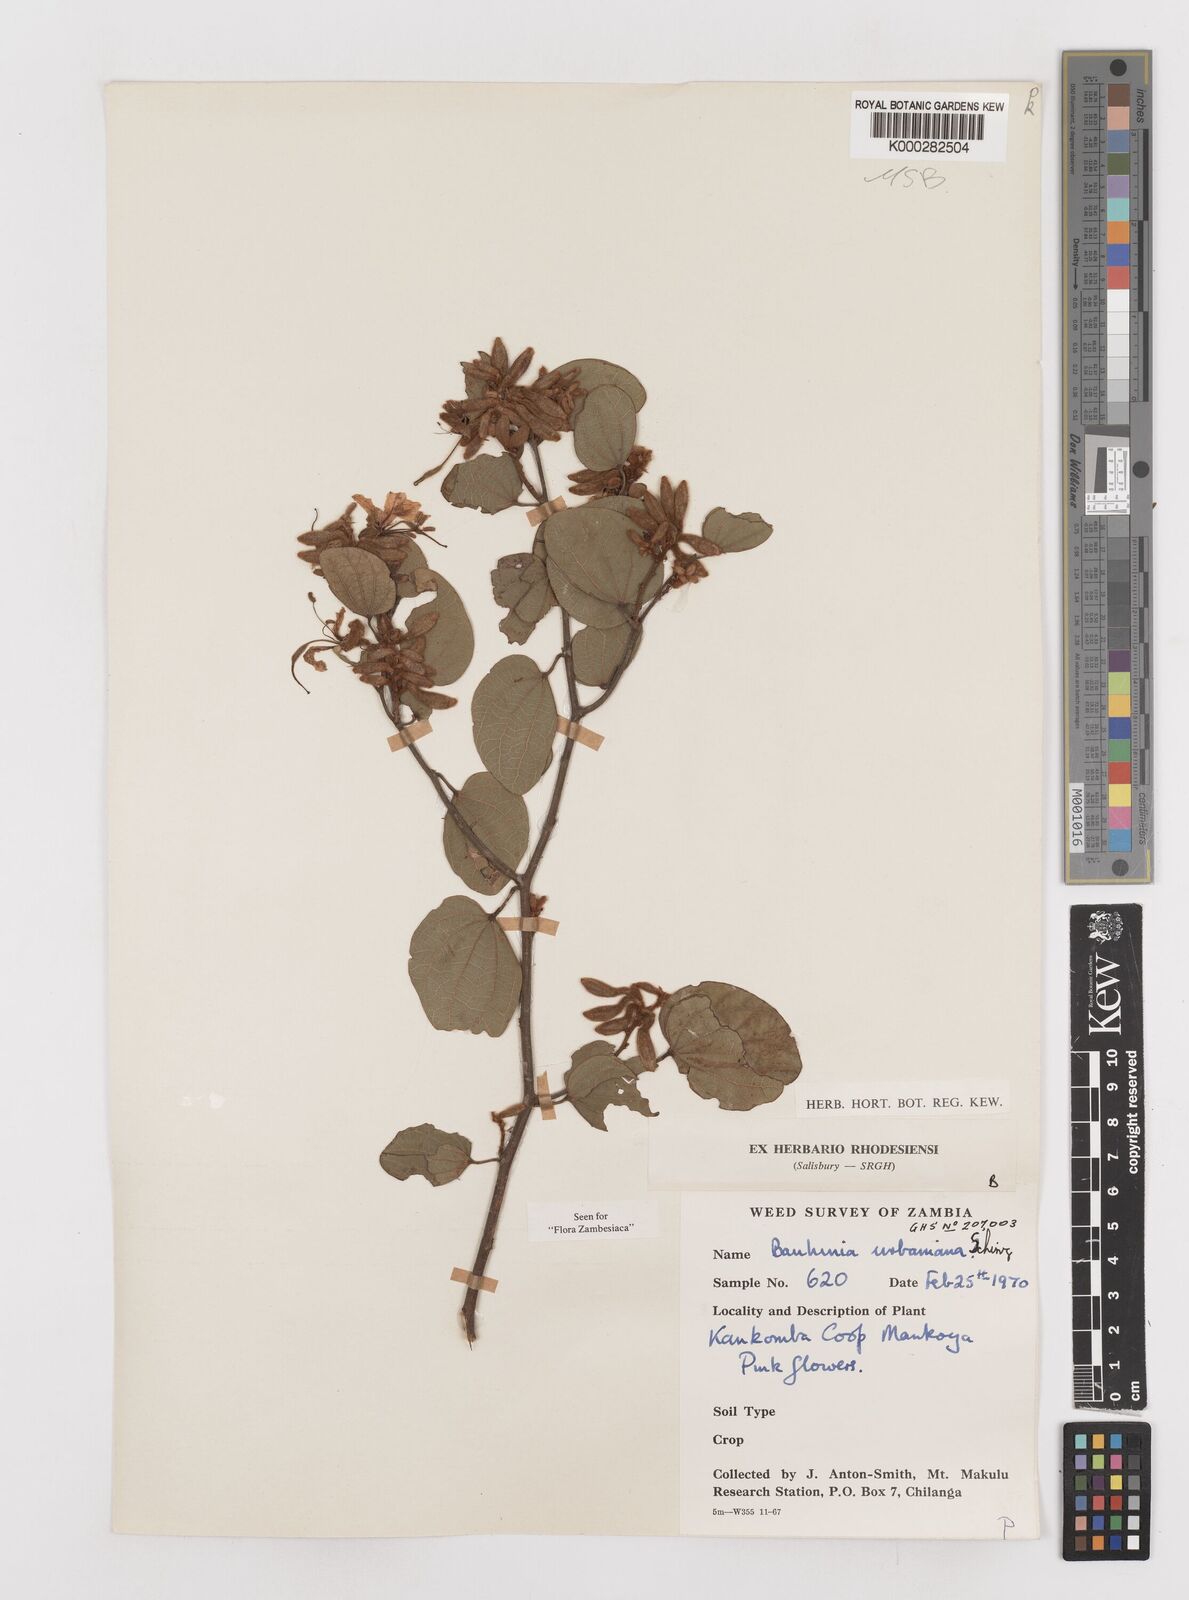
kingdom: Plantae
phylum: Tracheophyta
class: Magnoliopsida
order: Fabales
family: Fabaceae
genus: Bauhinia
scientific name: Bauhinia urbaniana
